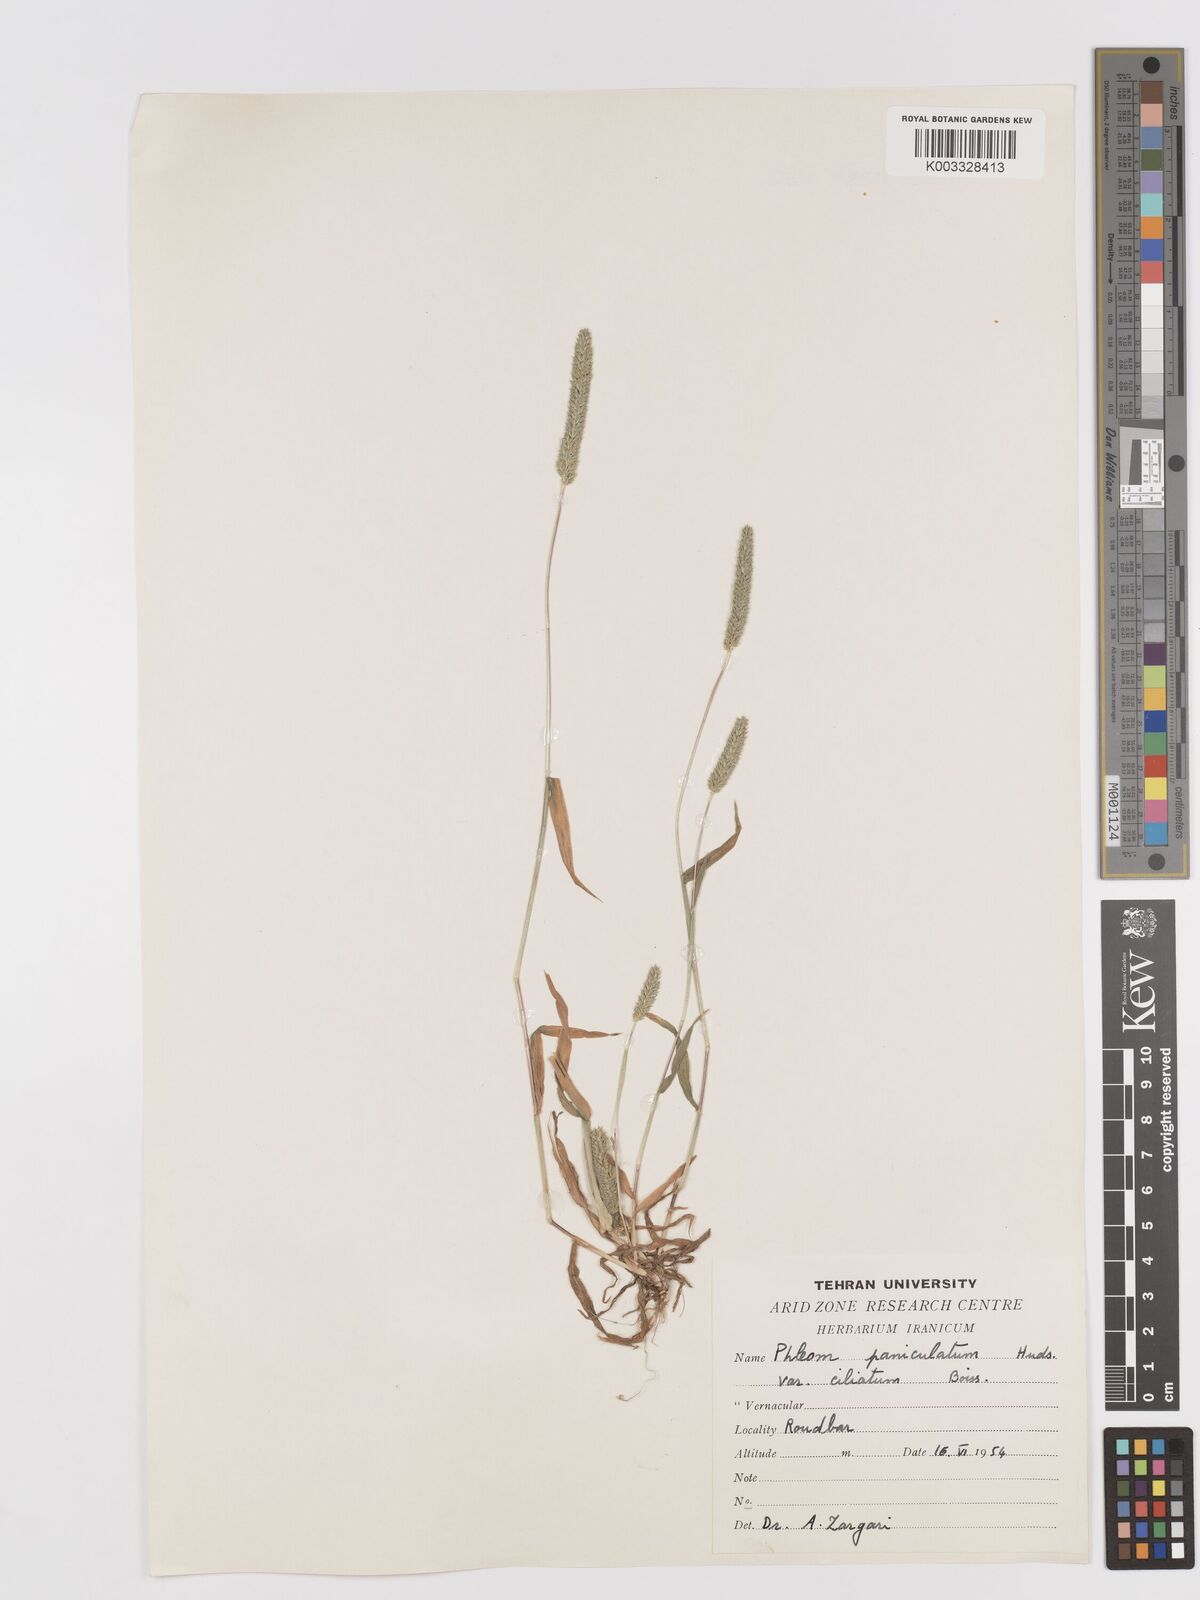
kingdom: Plantae
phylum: Tracheophyta
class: Liliopsida
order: Poales
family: Poaceae
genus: Phleum
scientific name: Phleum paniculatum
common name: British timothy
